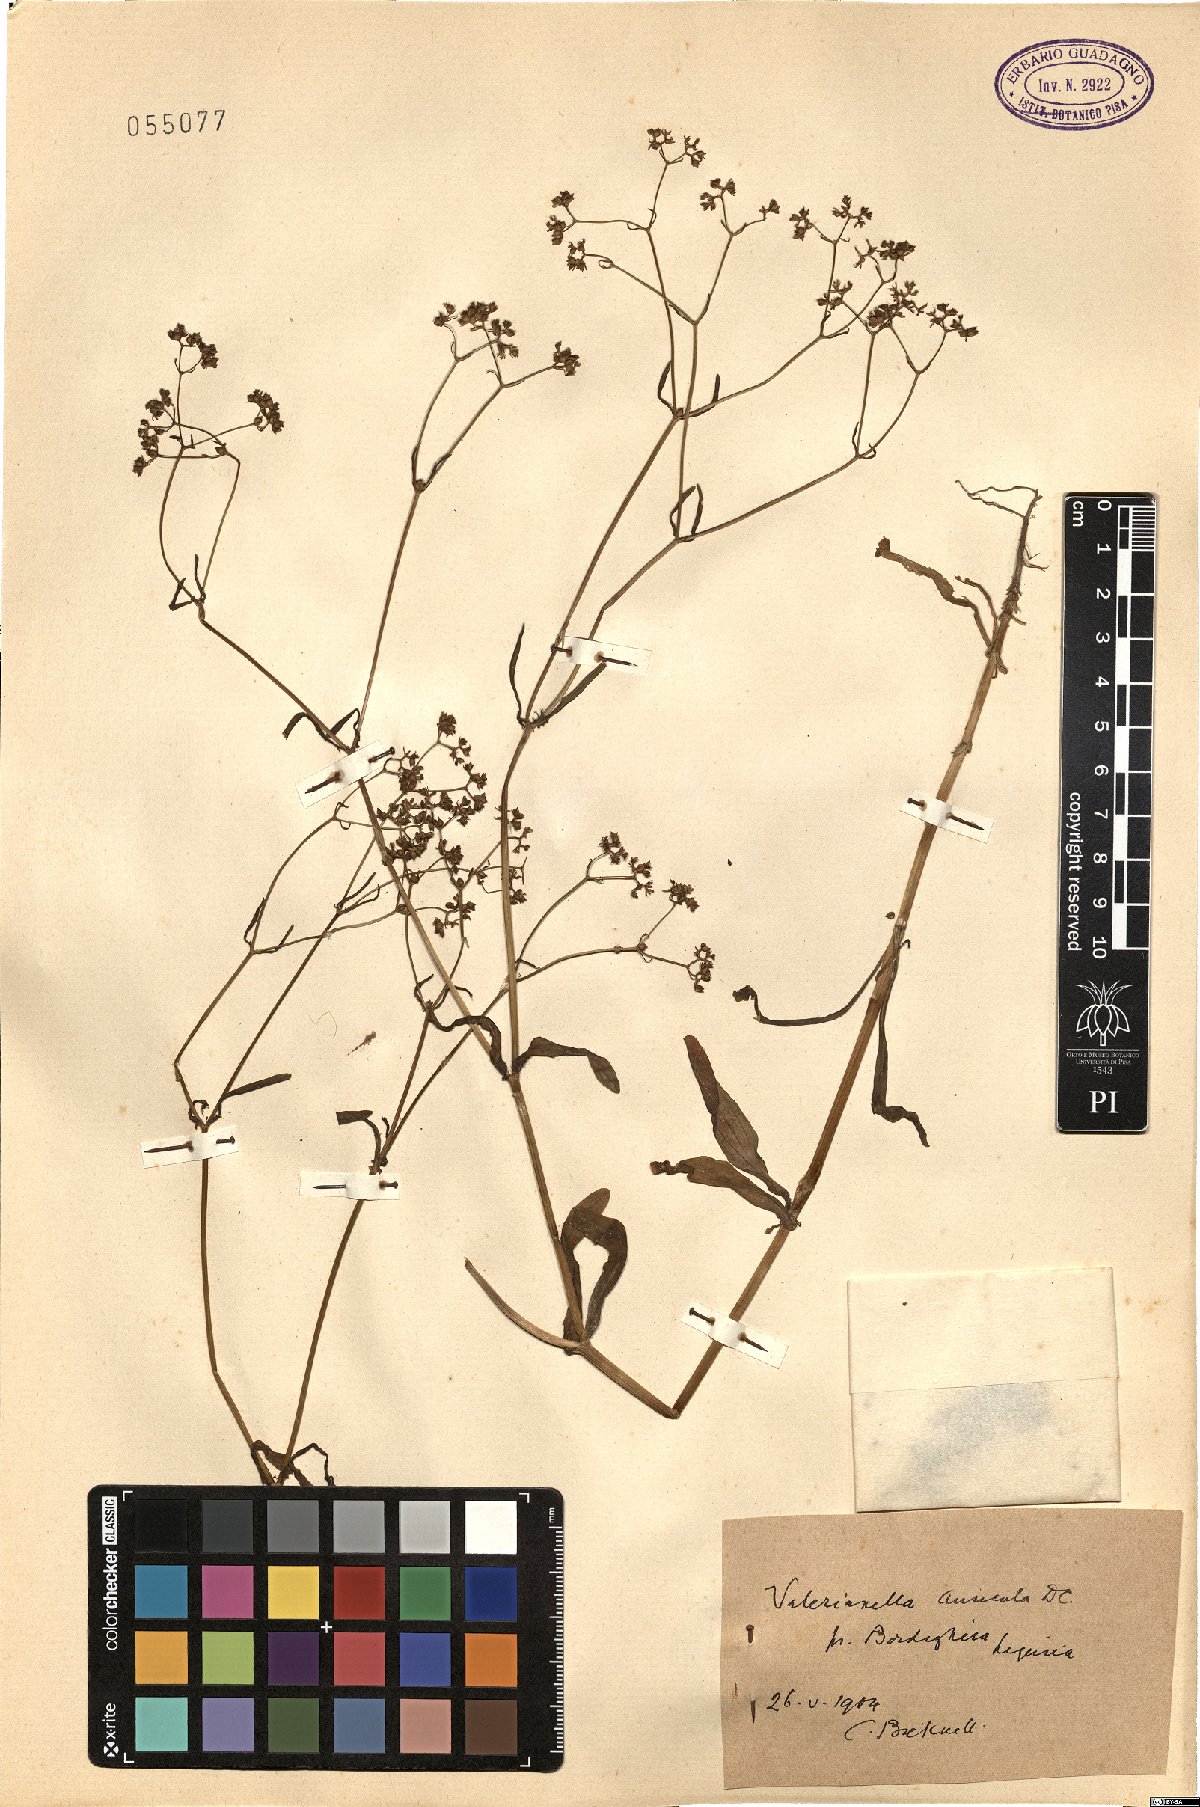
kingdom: Plantae
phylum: Tracheophyta
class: Magnoliopsida
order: Dipsacales
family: Caprifoliaceae
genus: Valerianella
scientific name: Valerianella rimosa
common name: Broad-fruited cornsalad
